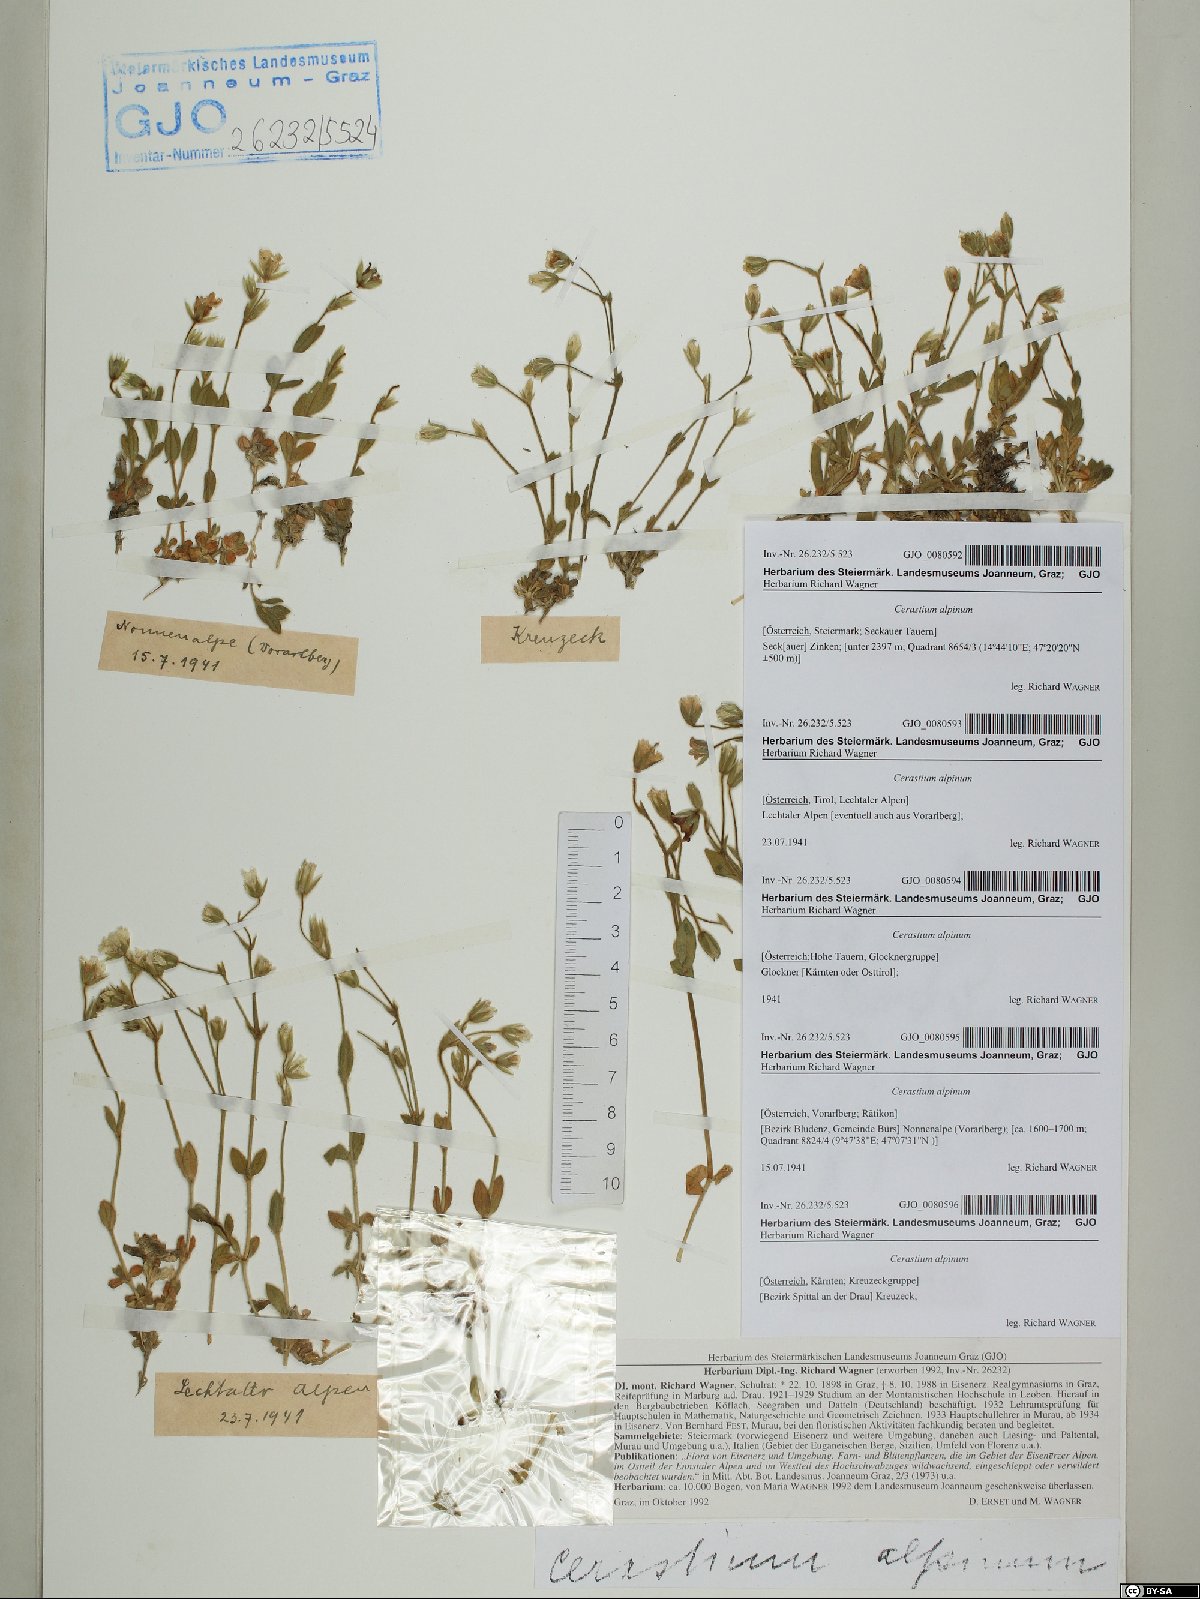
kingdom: Plantae
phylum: Tracheophyta
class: Magnoliopsida
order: Caryophyllales
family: Caryophyllaceae
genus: Cerastium
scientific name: Cerastium alpinum
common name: Alpine mouse-ear
